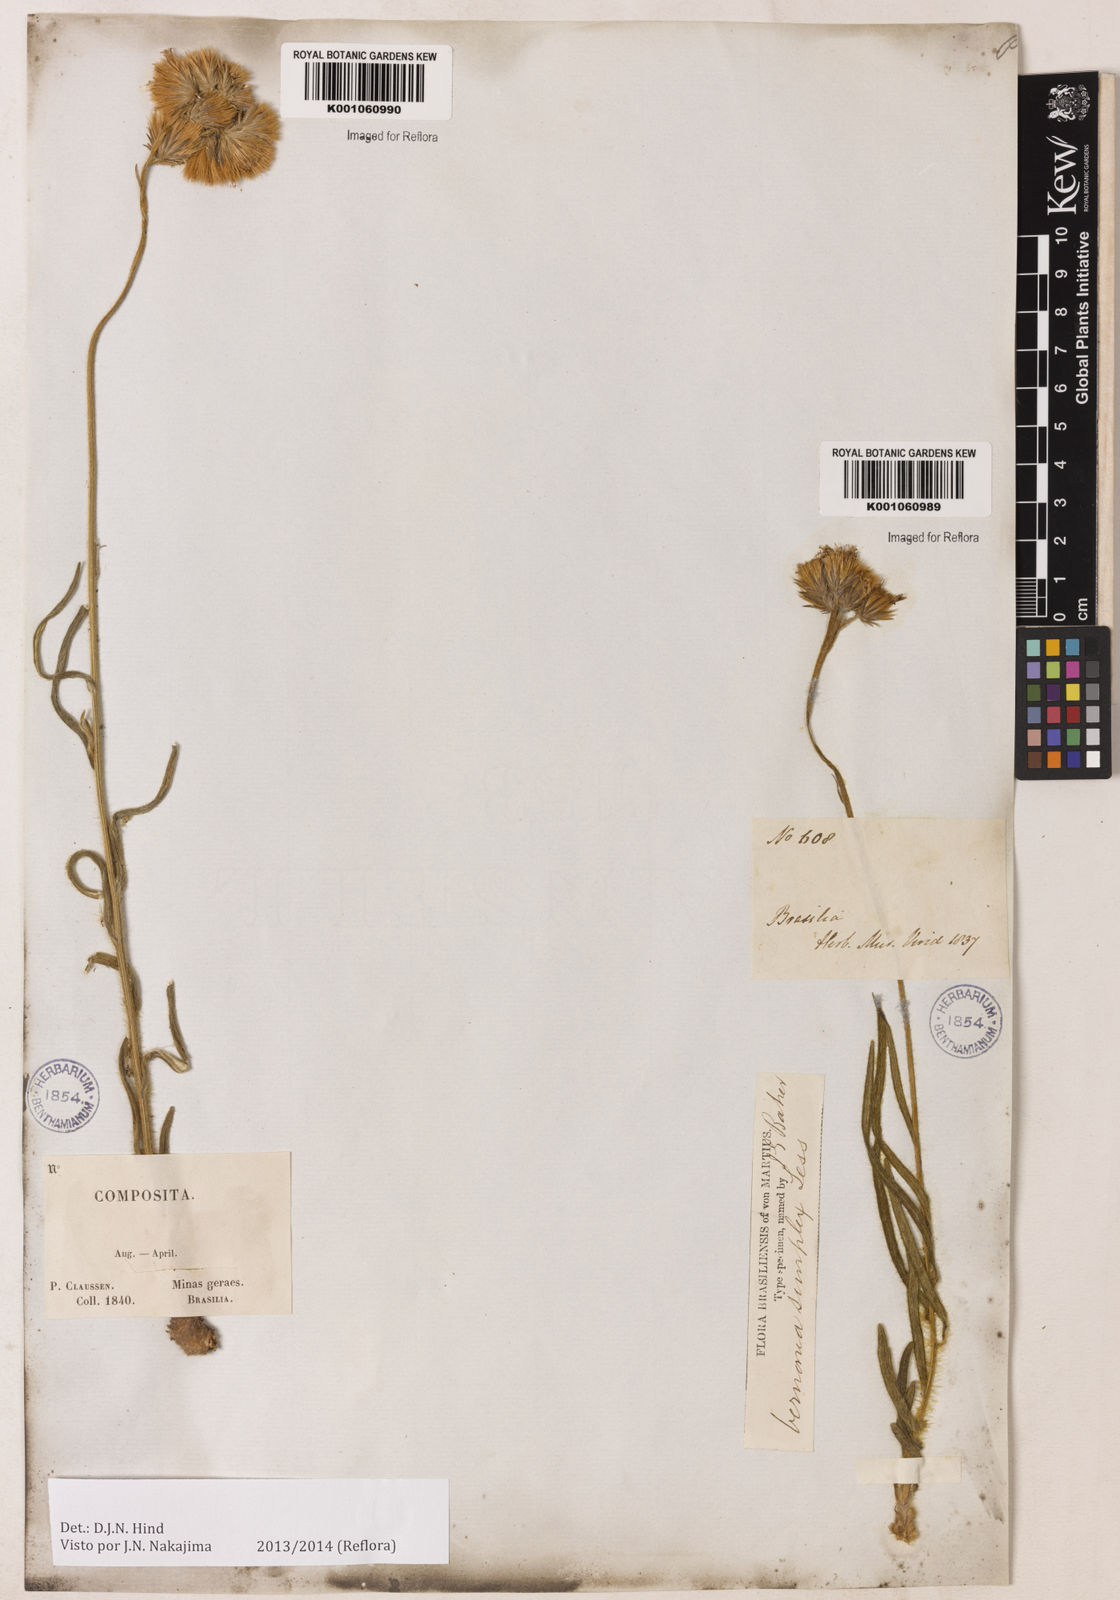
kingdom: Plantae
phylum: Tracheophyta
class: Magnoliopsida
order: Asterales
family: Asteraceae
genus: Chrysolaena
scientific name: Chrysolaena simplex
